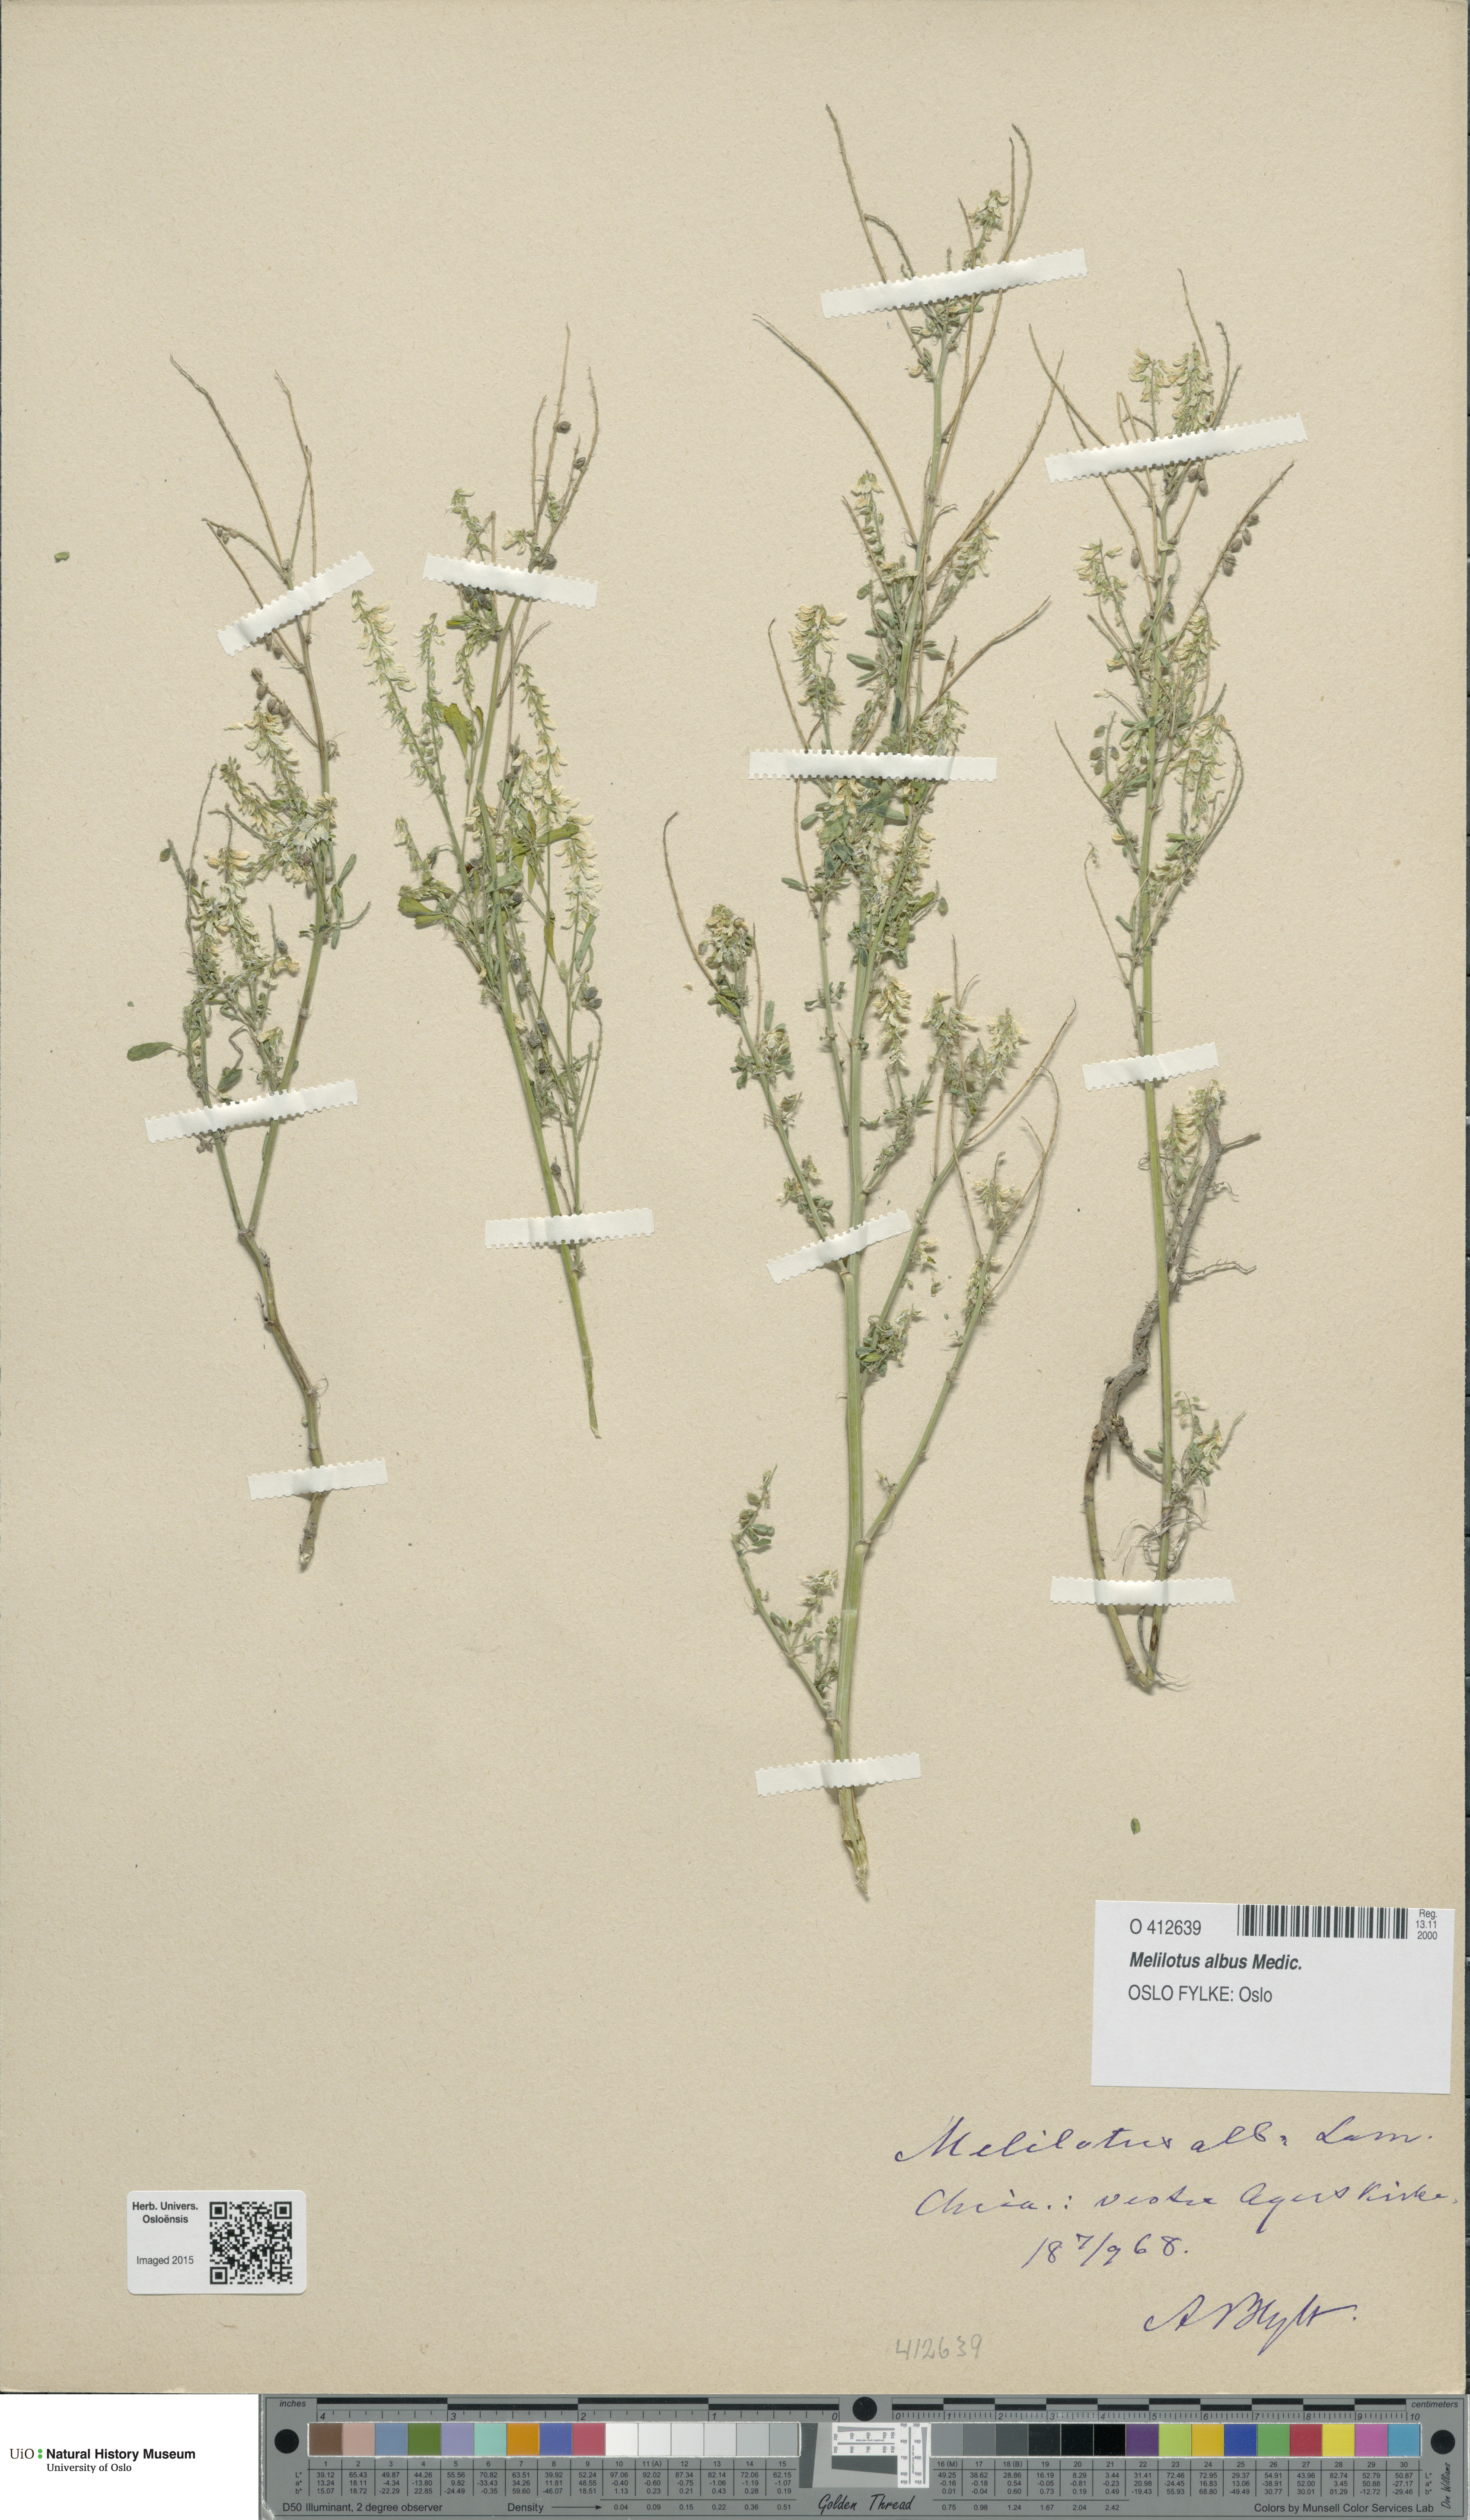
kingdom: Plantae
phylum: Tracheophyta
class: Magnoliopsida
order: Fabales
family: Fabaceae
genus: Melilotus
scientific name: Melilotus albus
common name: White melilot
